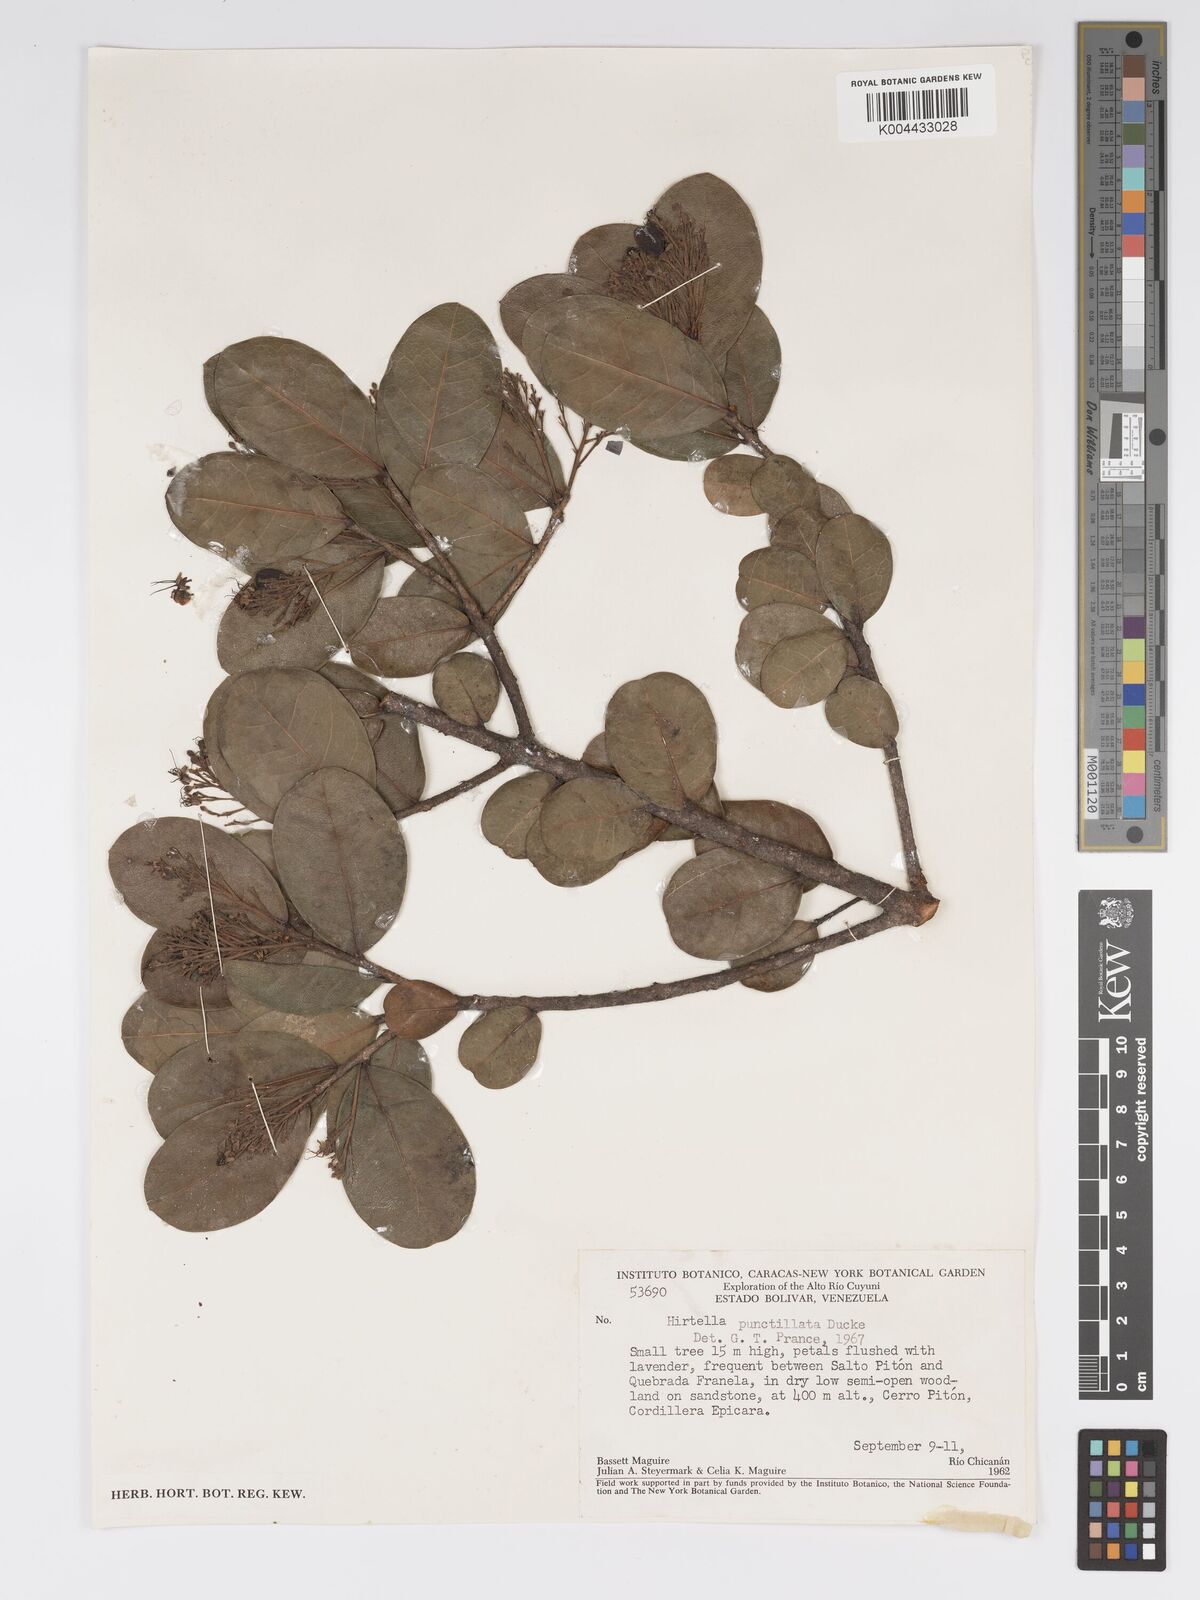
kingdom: Plantae
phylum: Tracheophyta
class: Magnoliopsida
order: Malpighiales
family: Chrysobalanaceae
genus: Hirtella
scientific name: Hirtella punctillata
